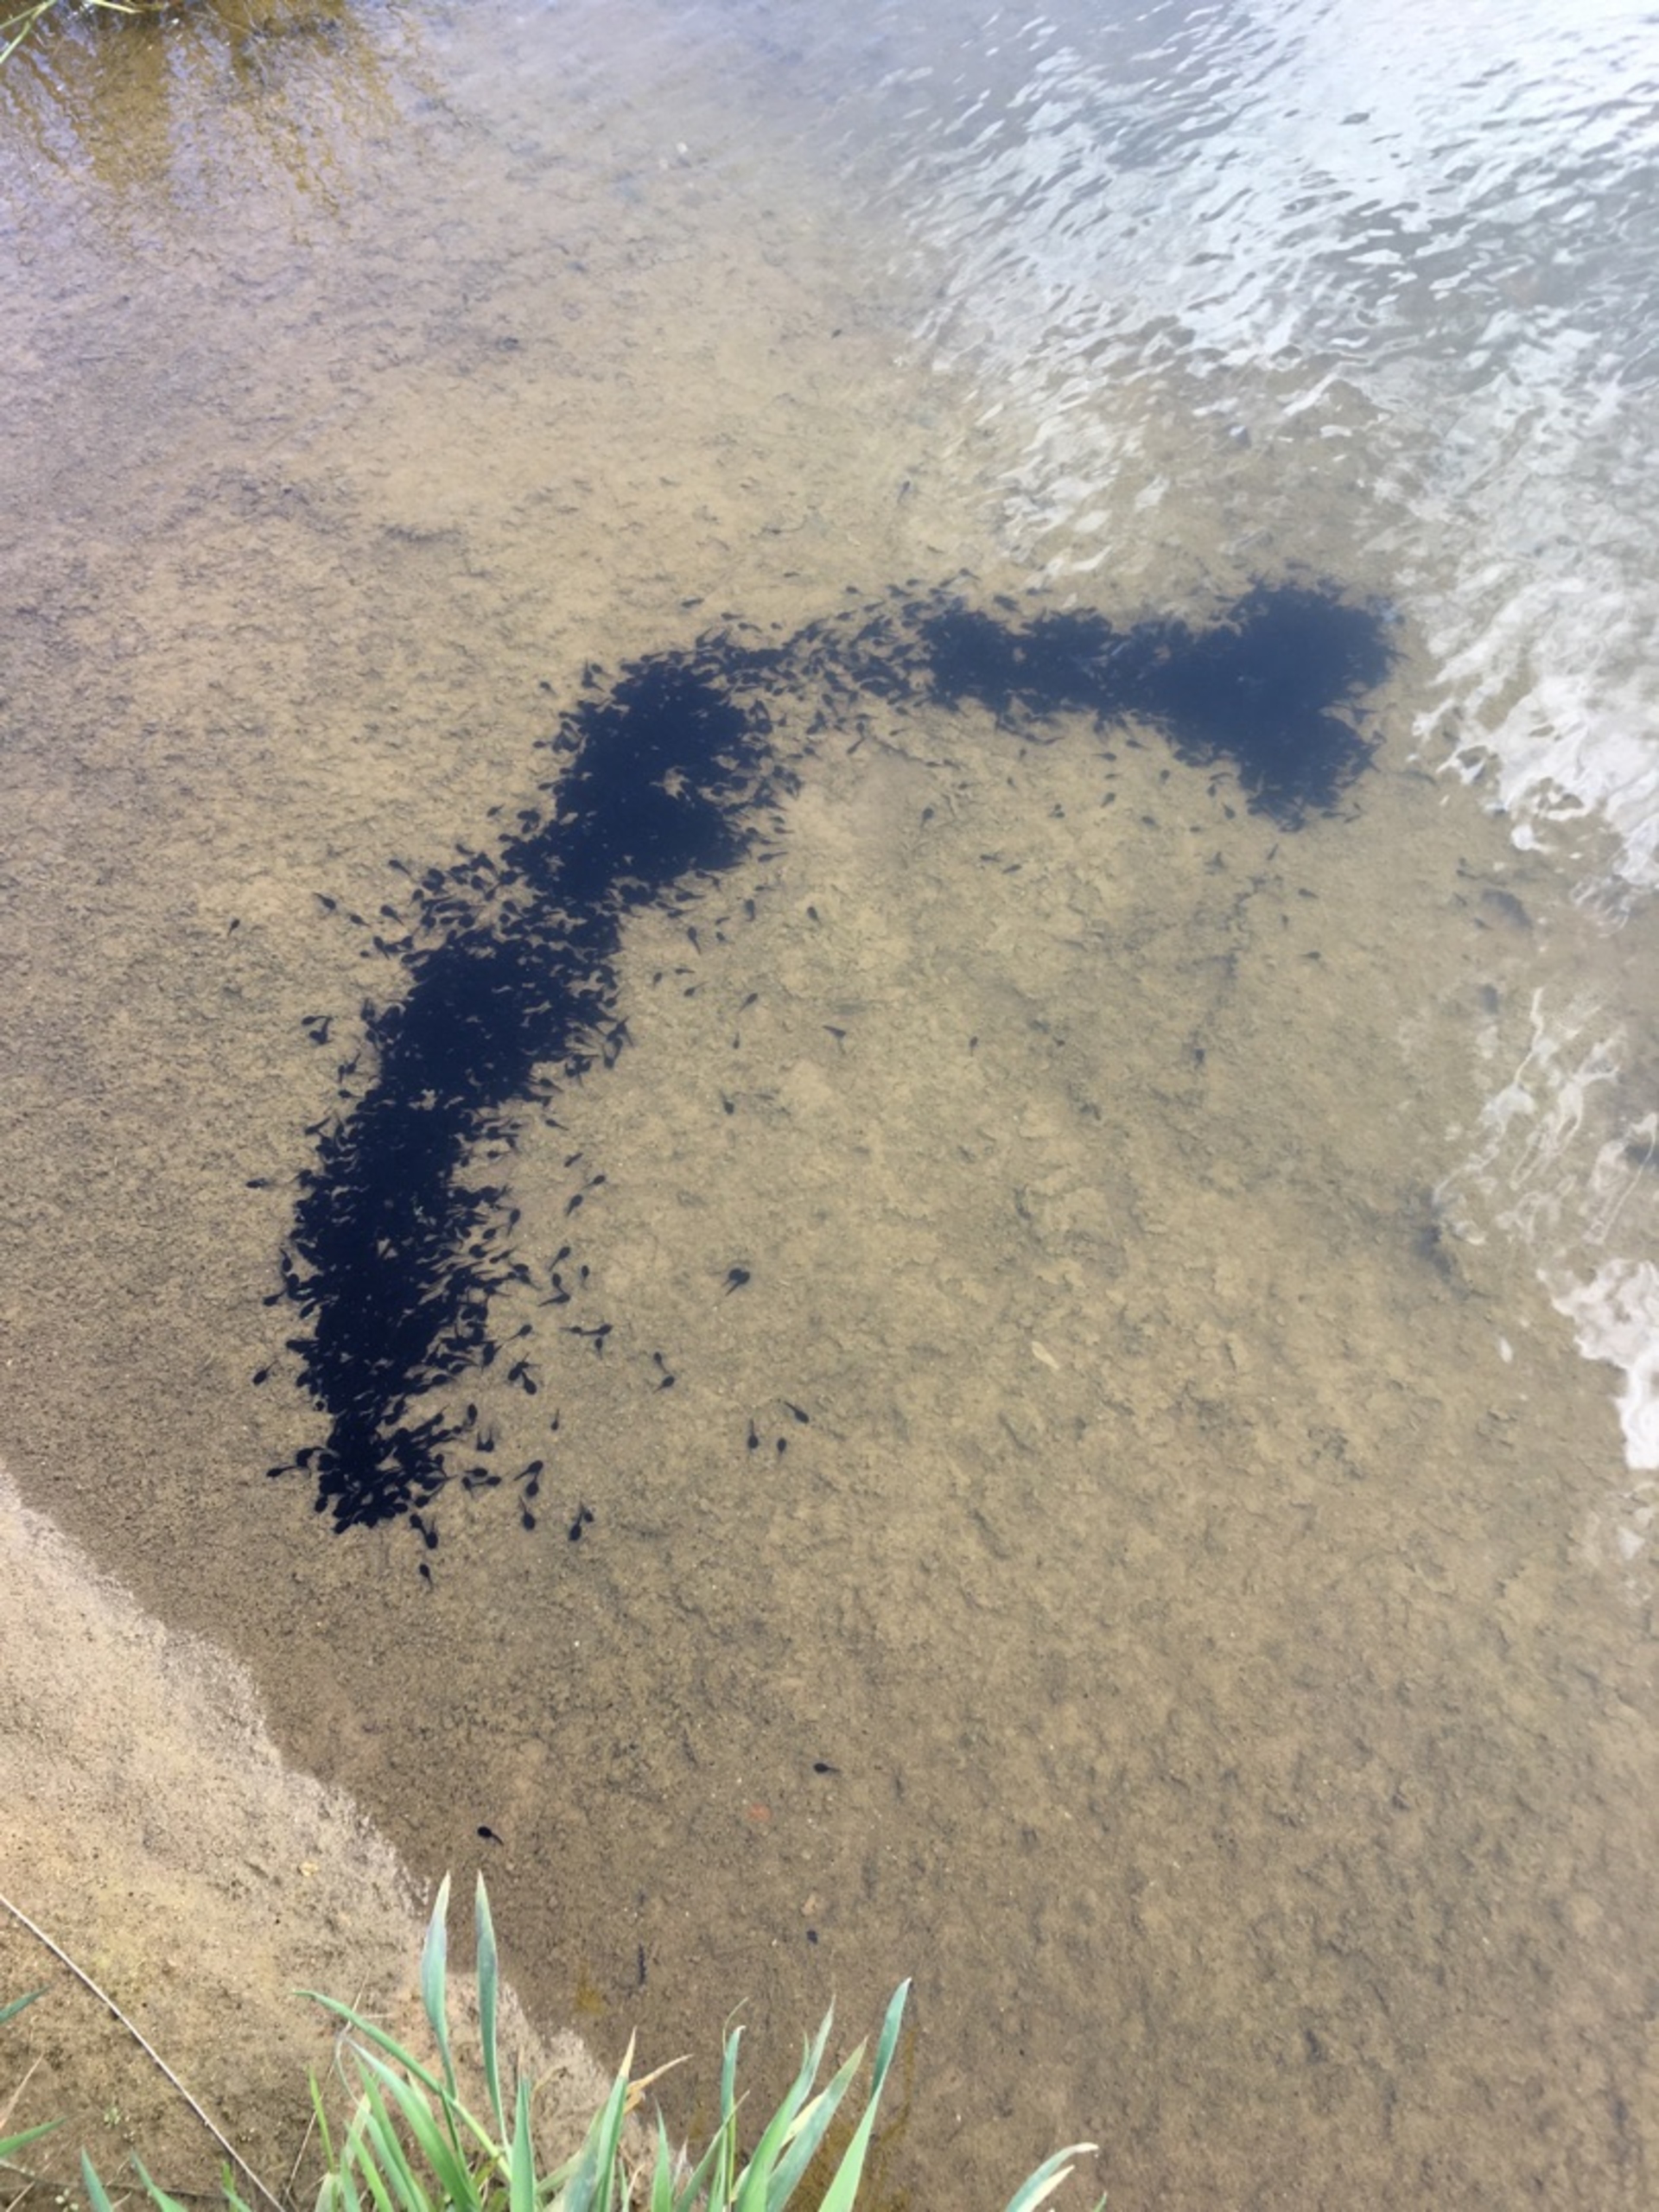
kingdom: Animalia
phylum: Chordata
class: Amphibia
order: Anura
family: Bufonidae
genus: Bufo
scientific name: Bufo bufo
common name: Skrubtudse
